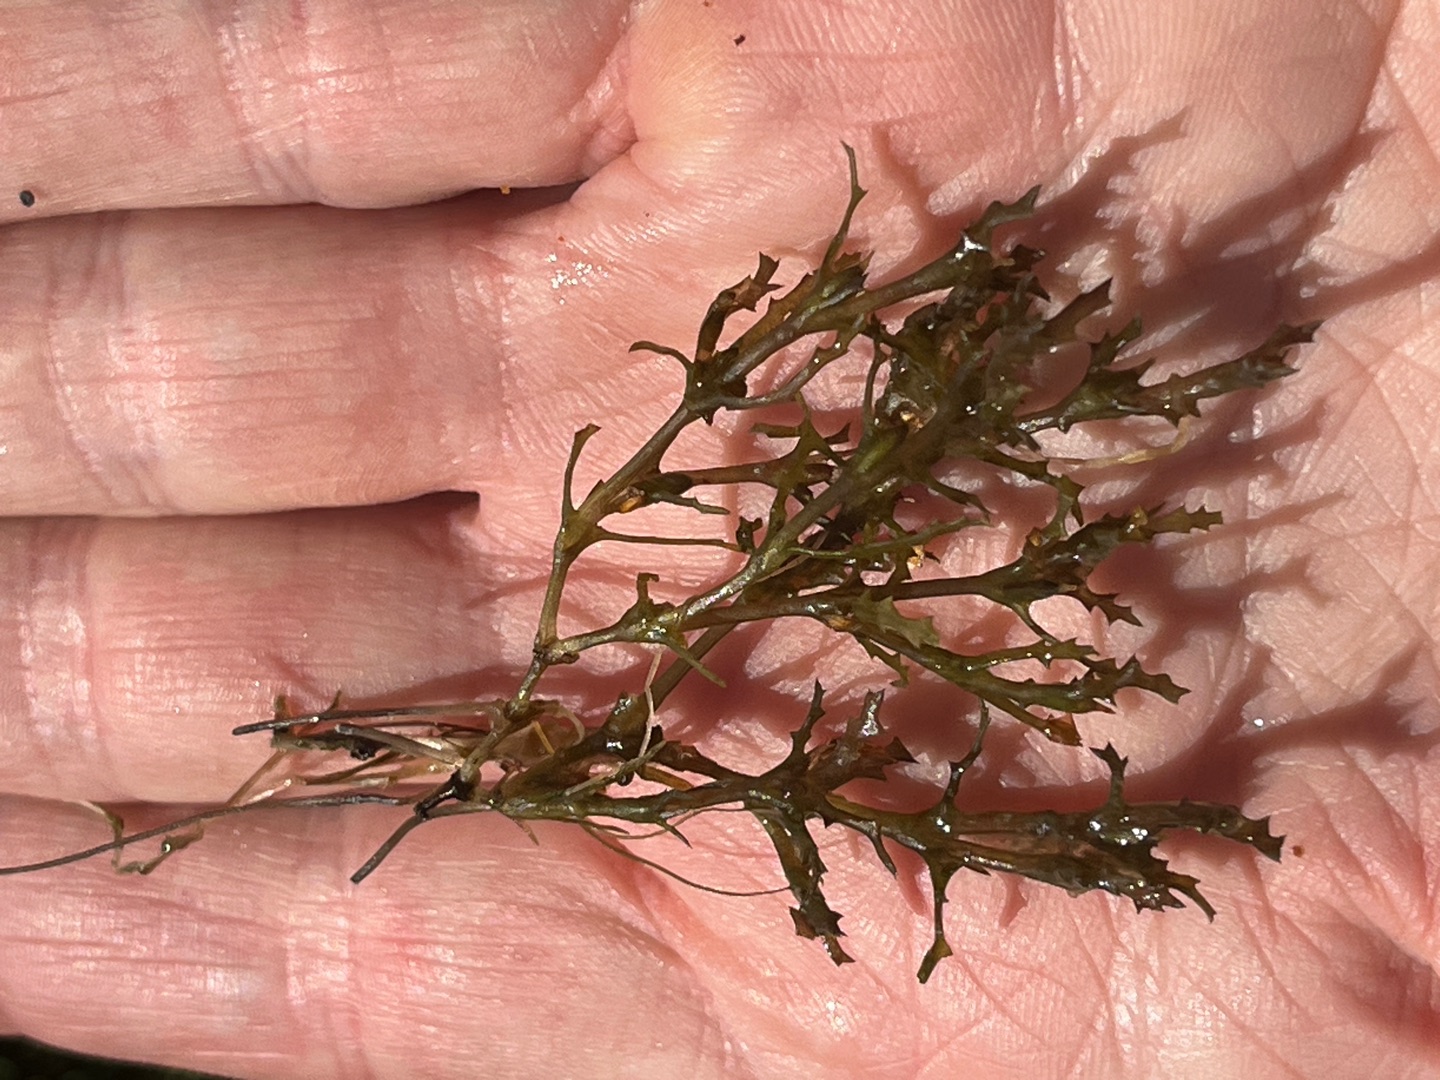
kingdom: Plantae
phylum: Tracheophyta
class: Liliopsida
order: Alismatales
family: Hydrocharitaceae
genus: Najas
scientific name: Najas marina
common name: Stor najade
